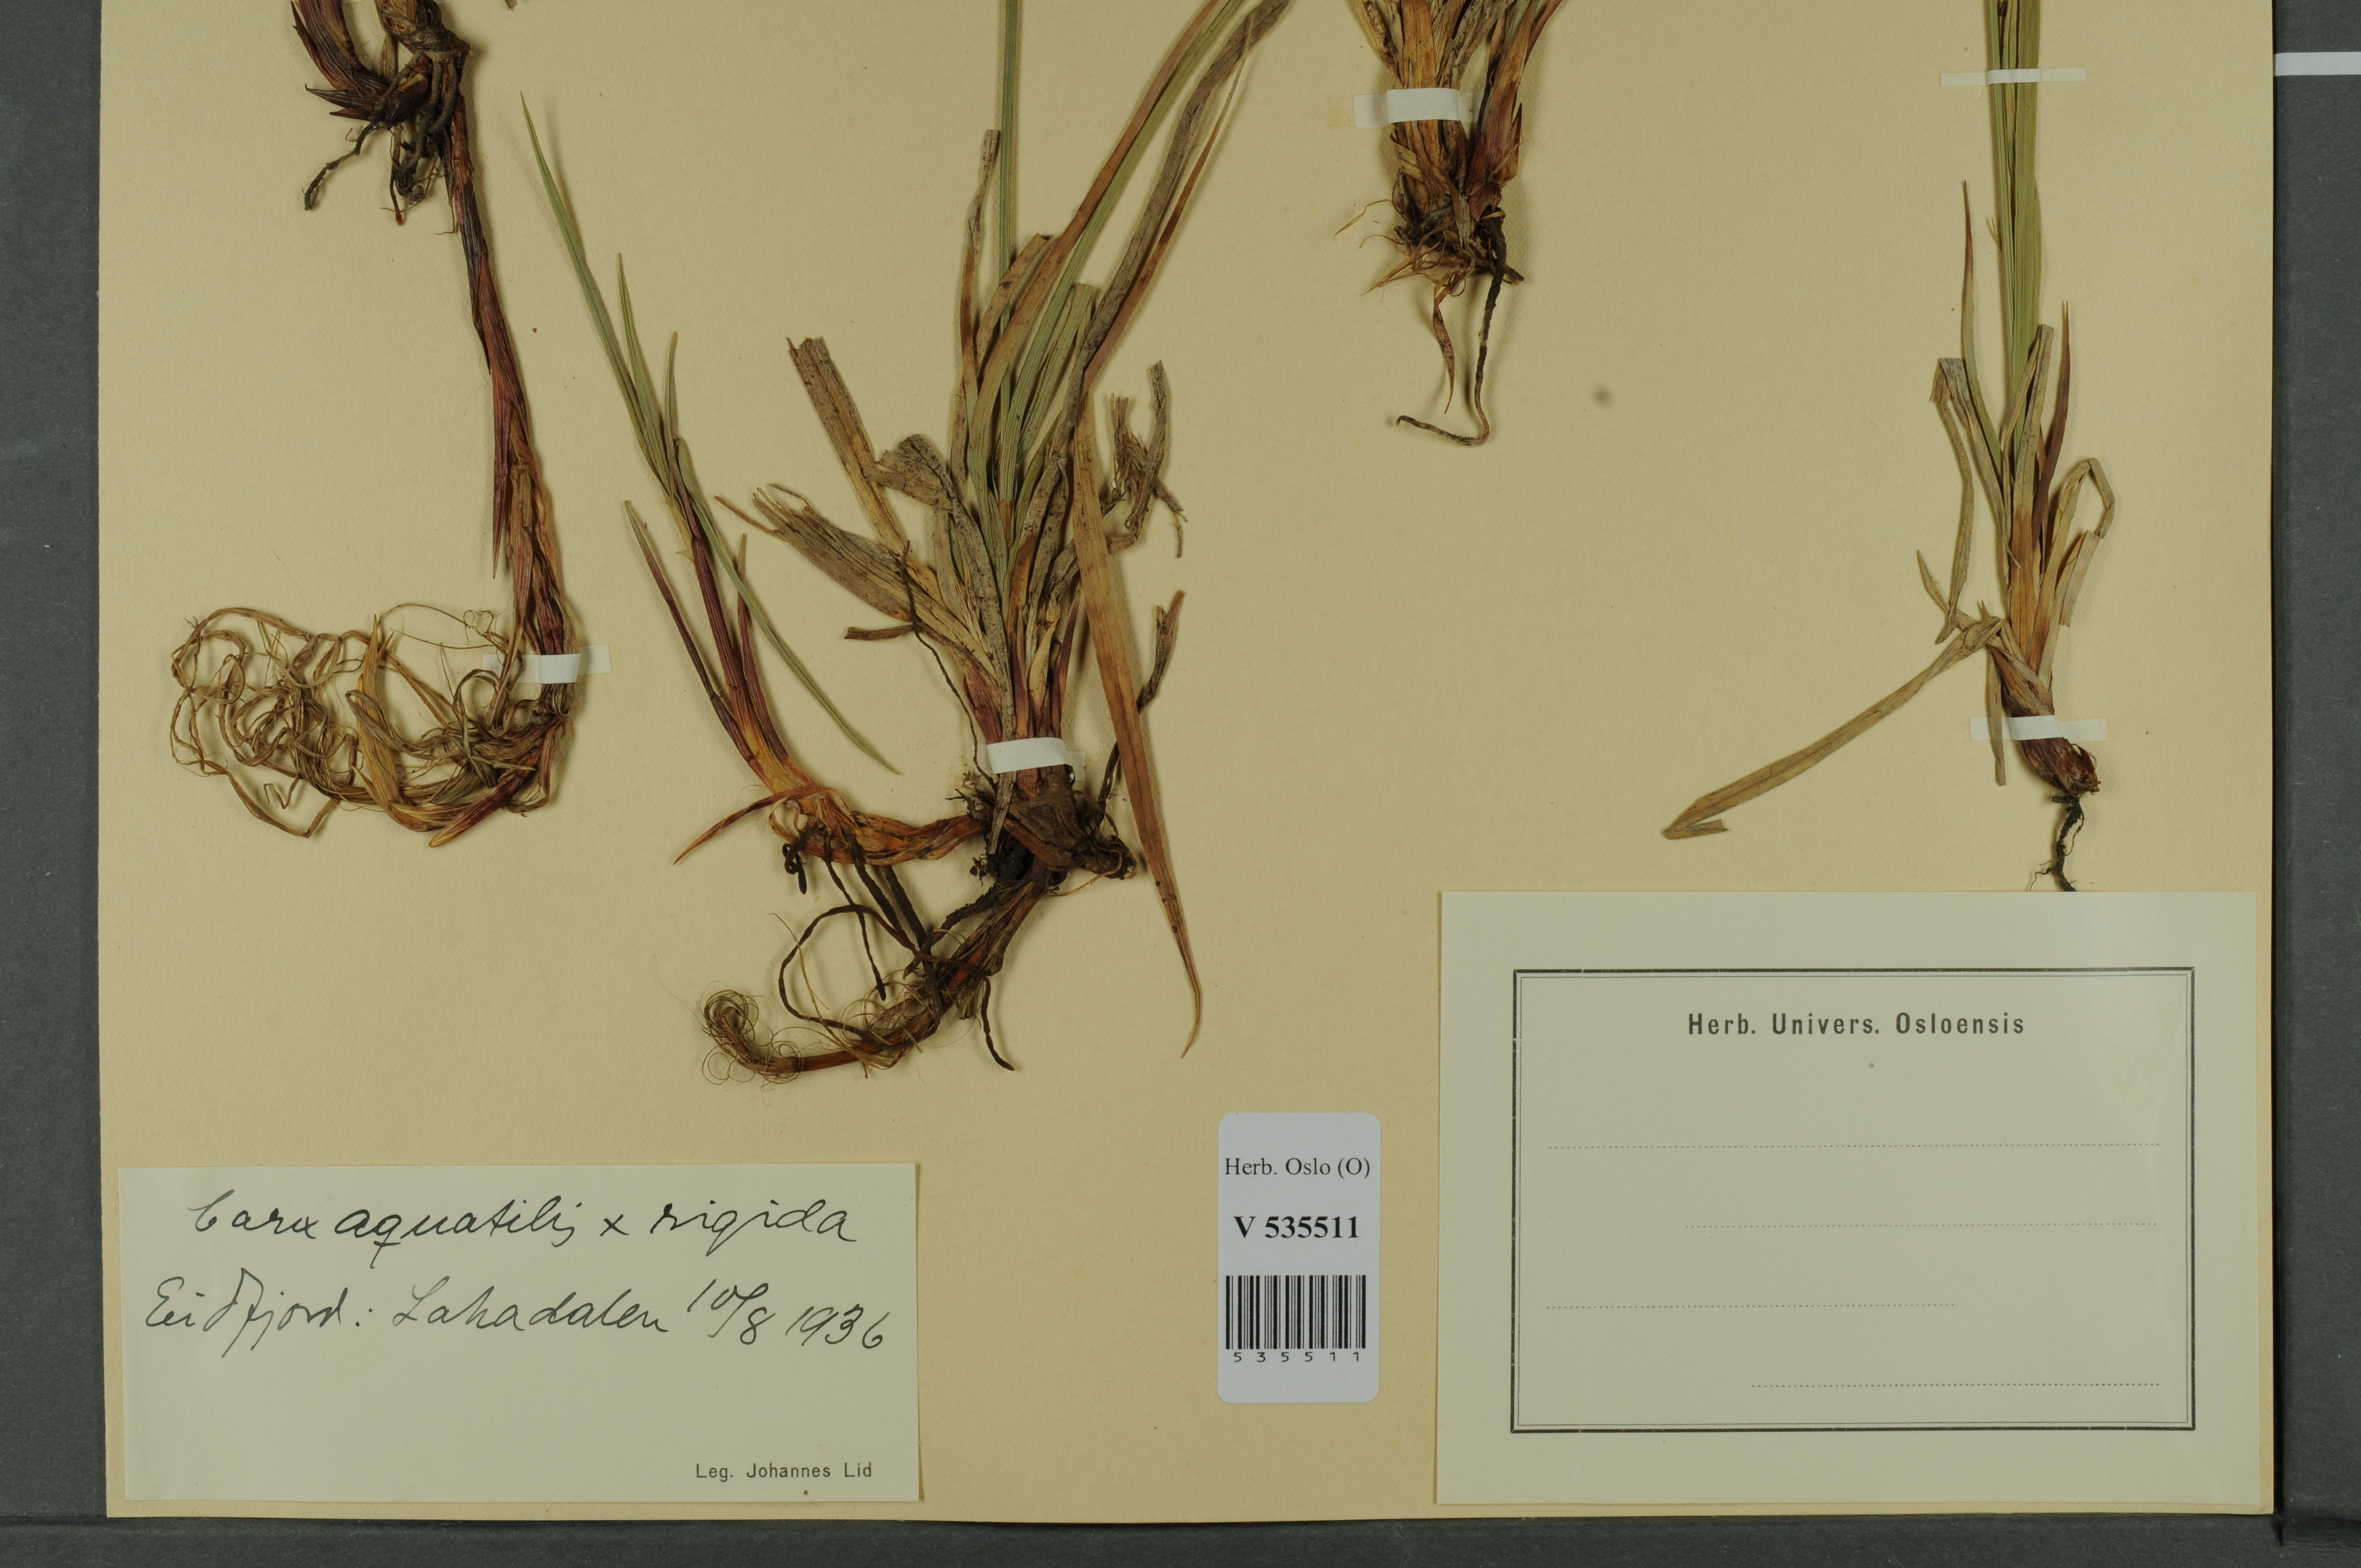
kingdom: Plantae
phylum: Tracheophyta
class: Liliopsida
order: Poales
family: Cyperaceae
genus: Carex
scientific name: Carex
